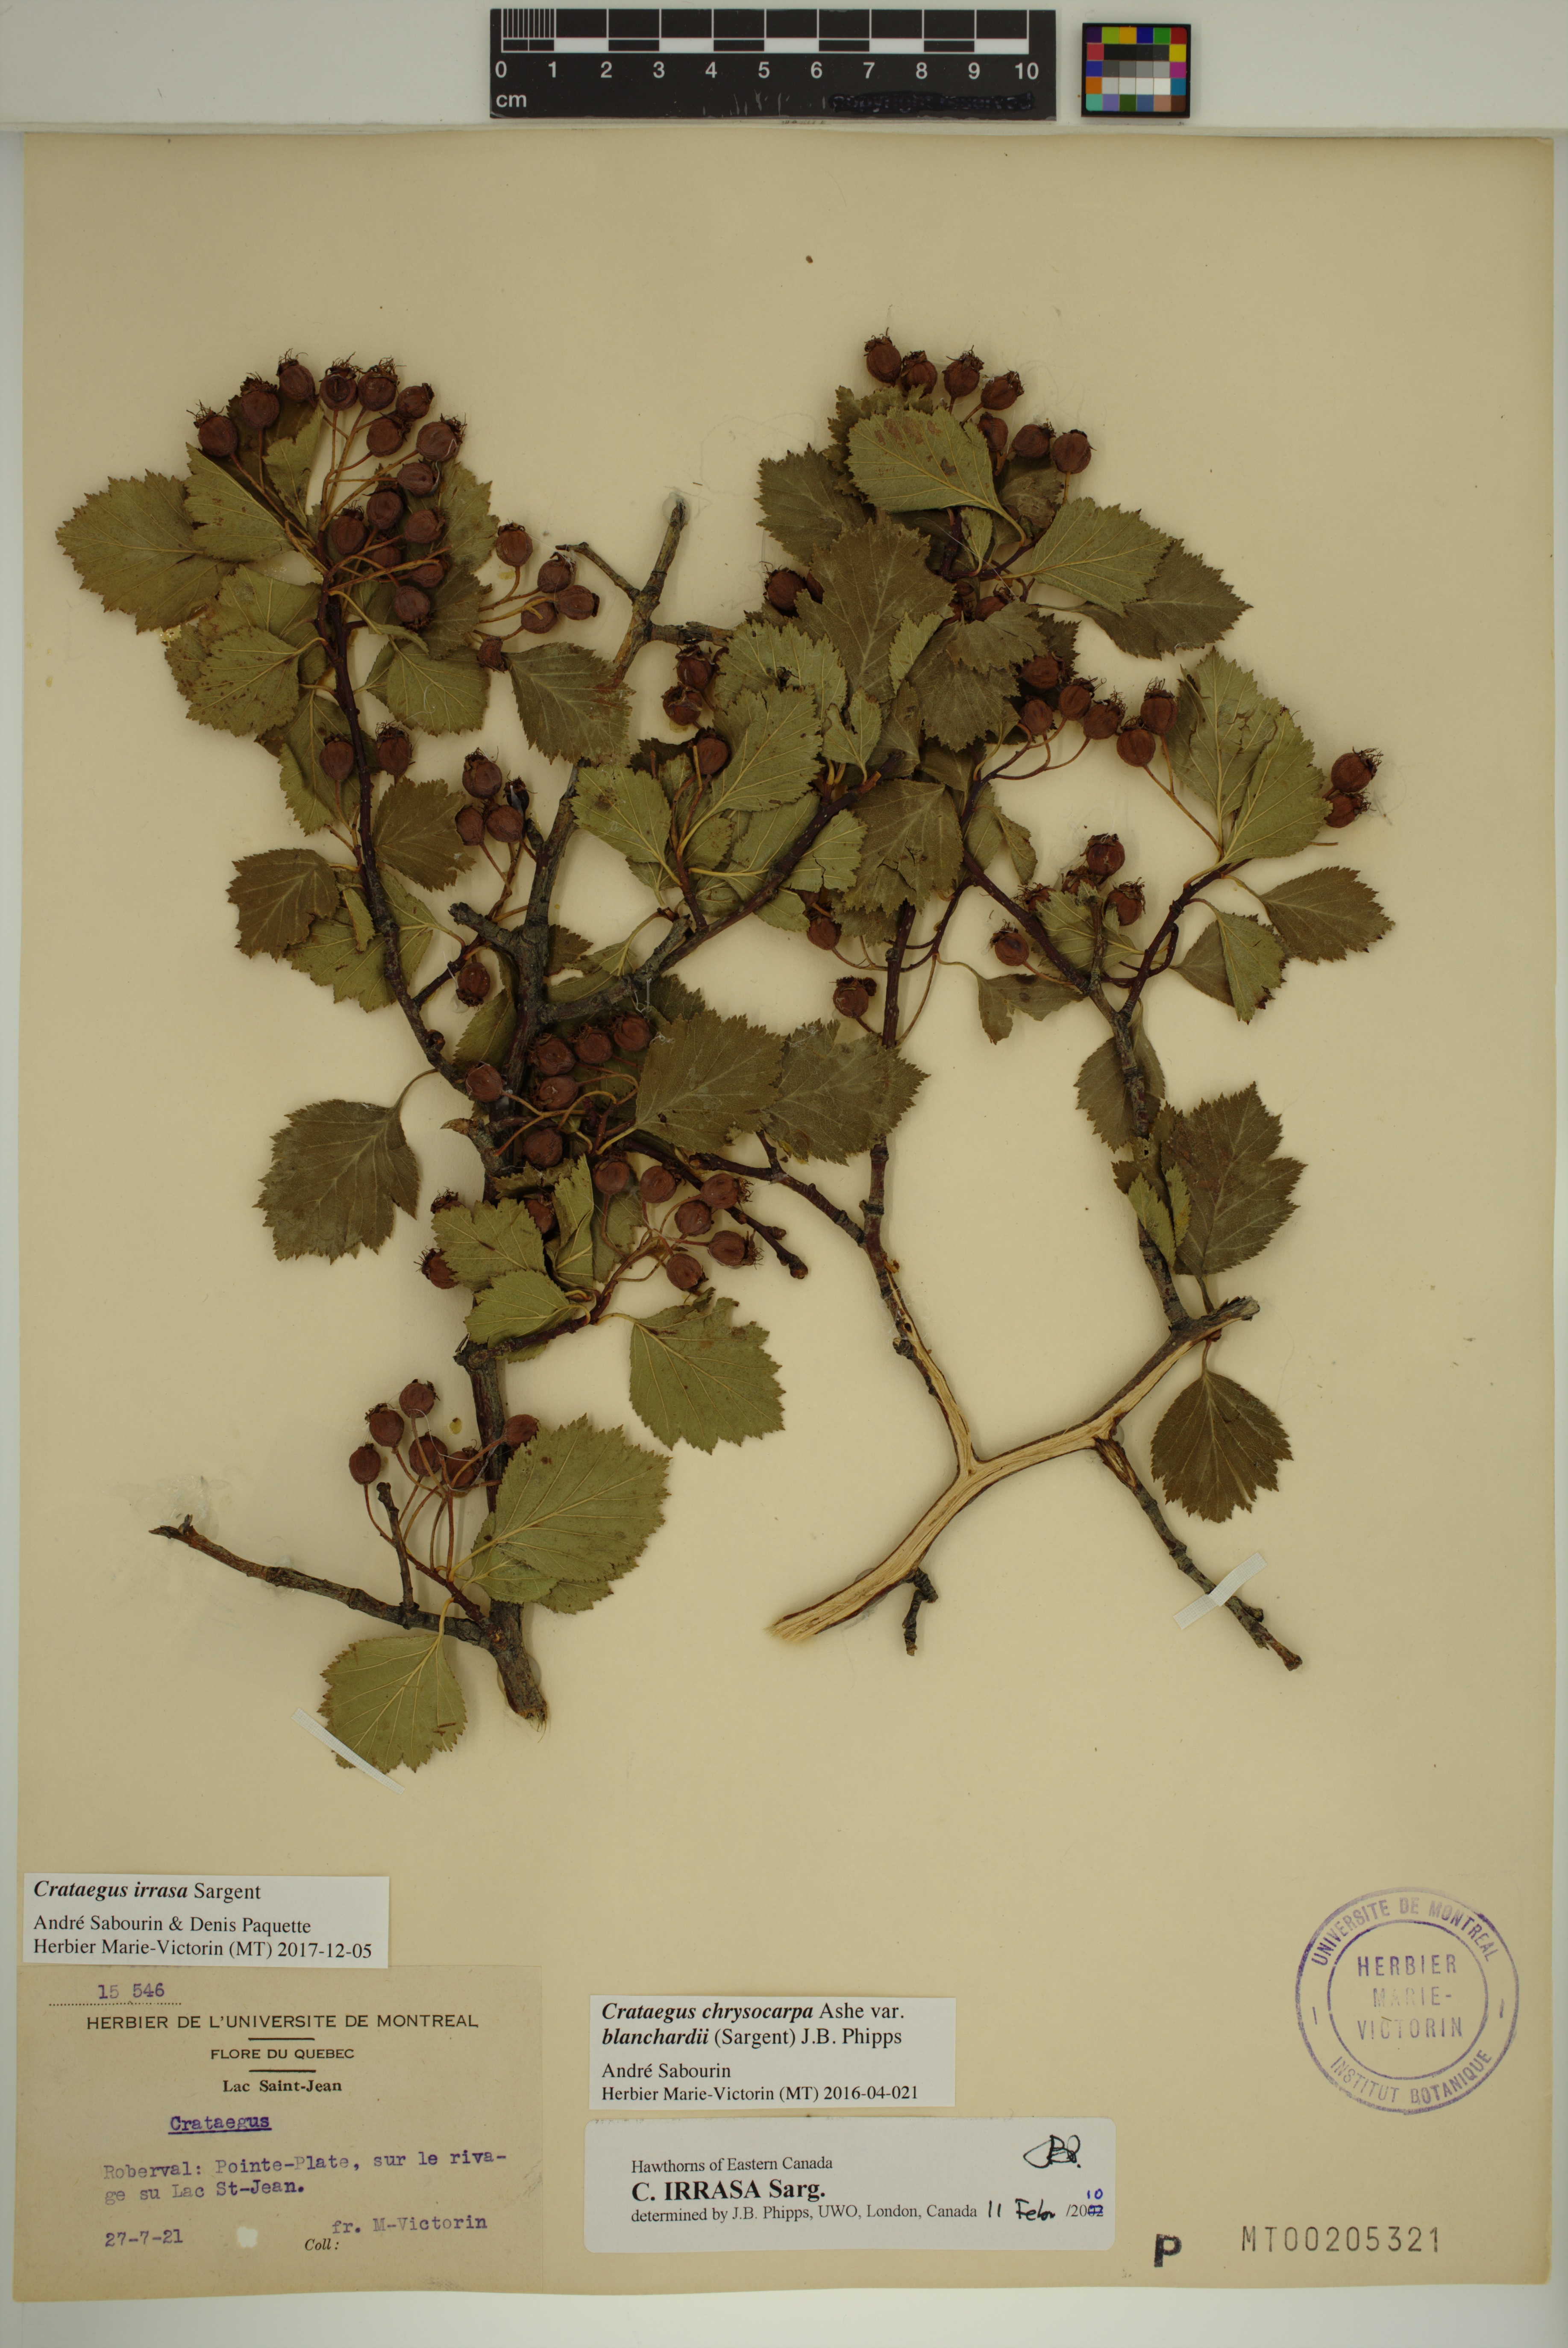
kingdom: Plantae
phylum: Tracheophyta
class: Magnoliopsida
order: Rosales
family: Rosaceae
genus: Crataegus
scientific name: Crataegus irrasa
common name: Unshorn hawthorn
